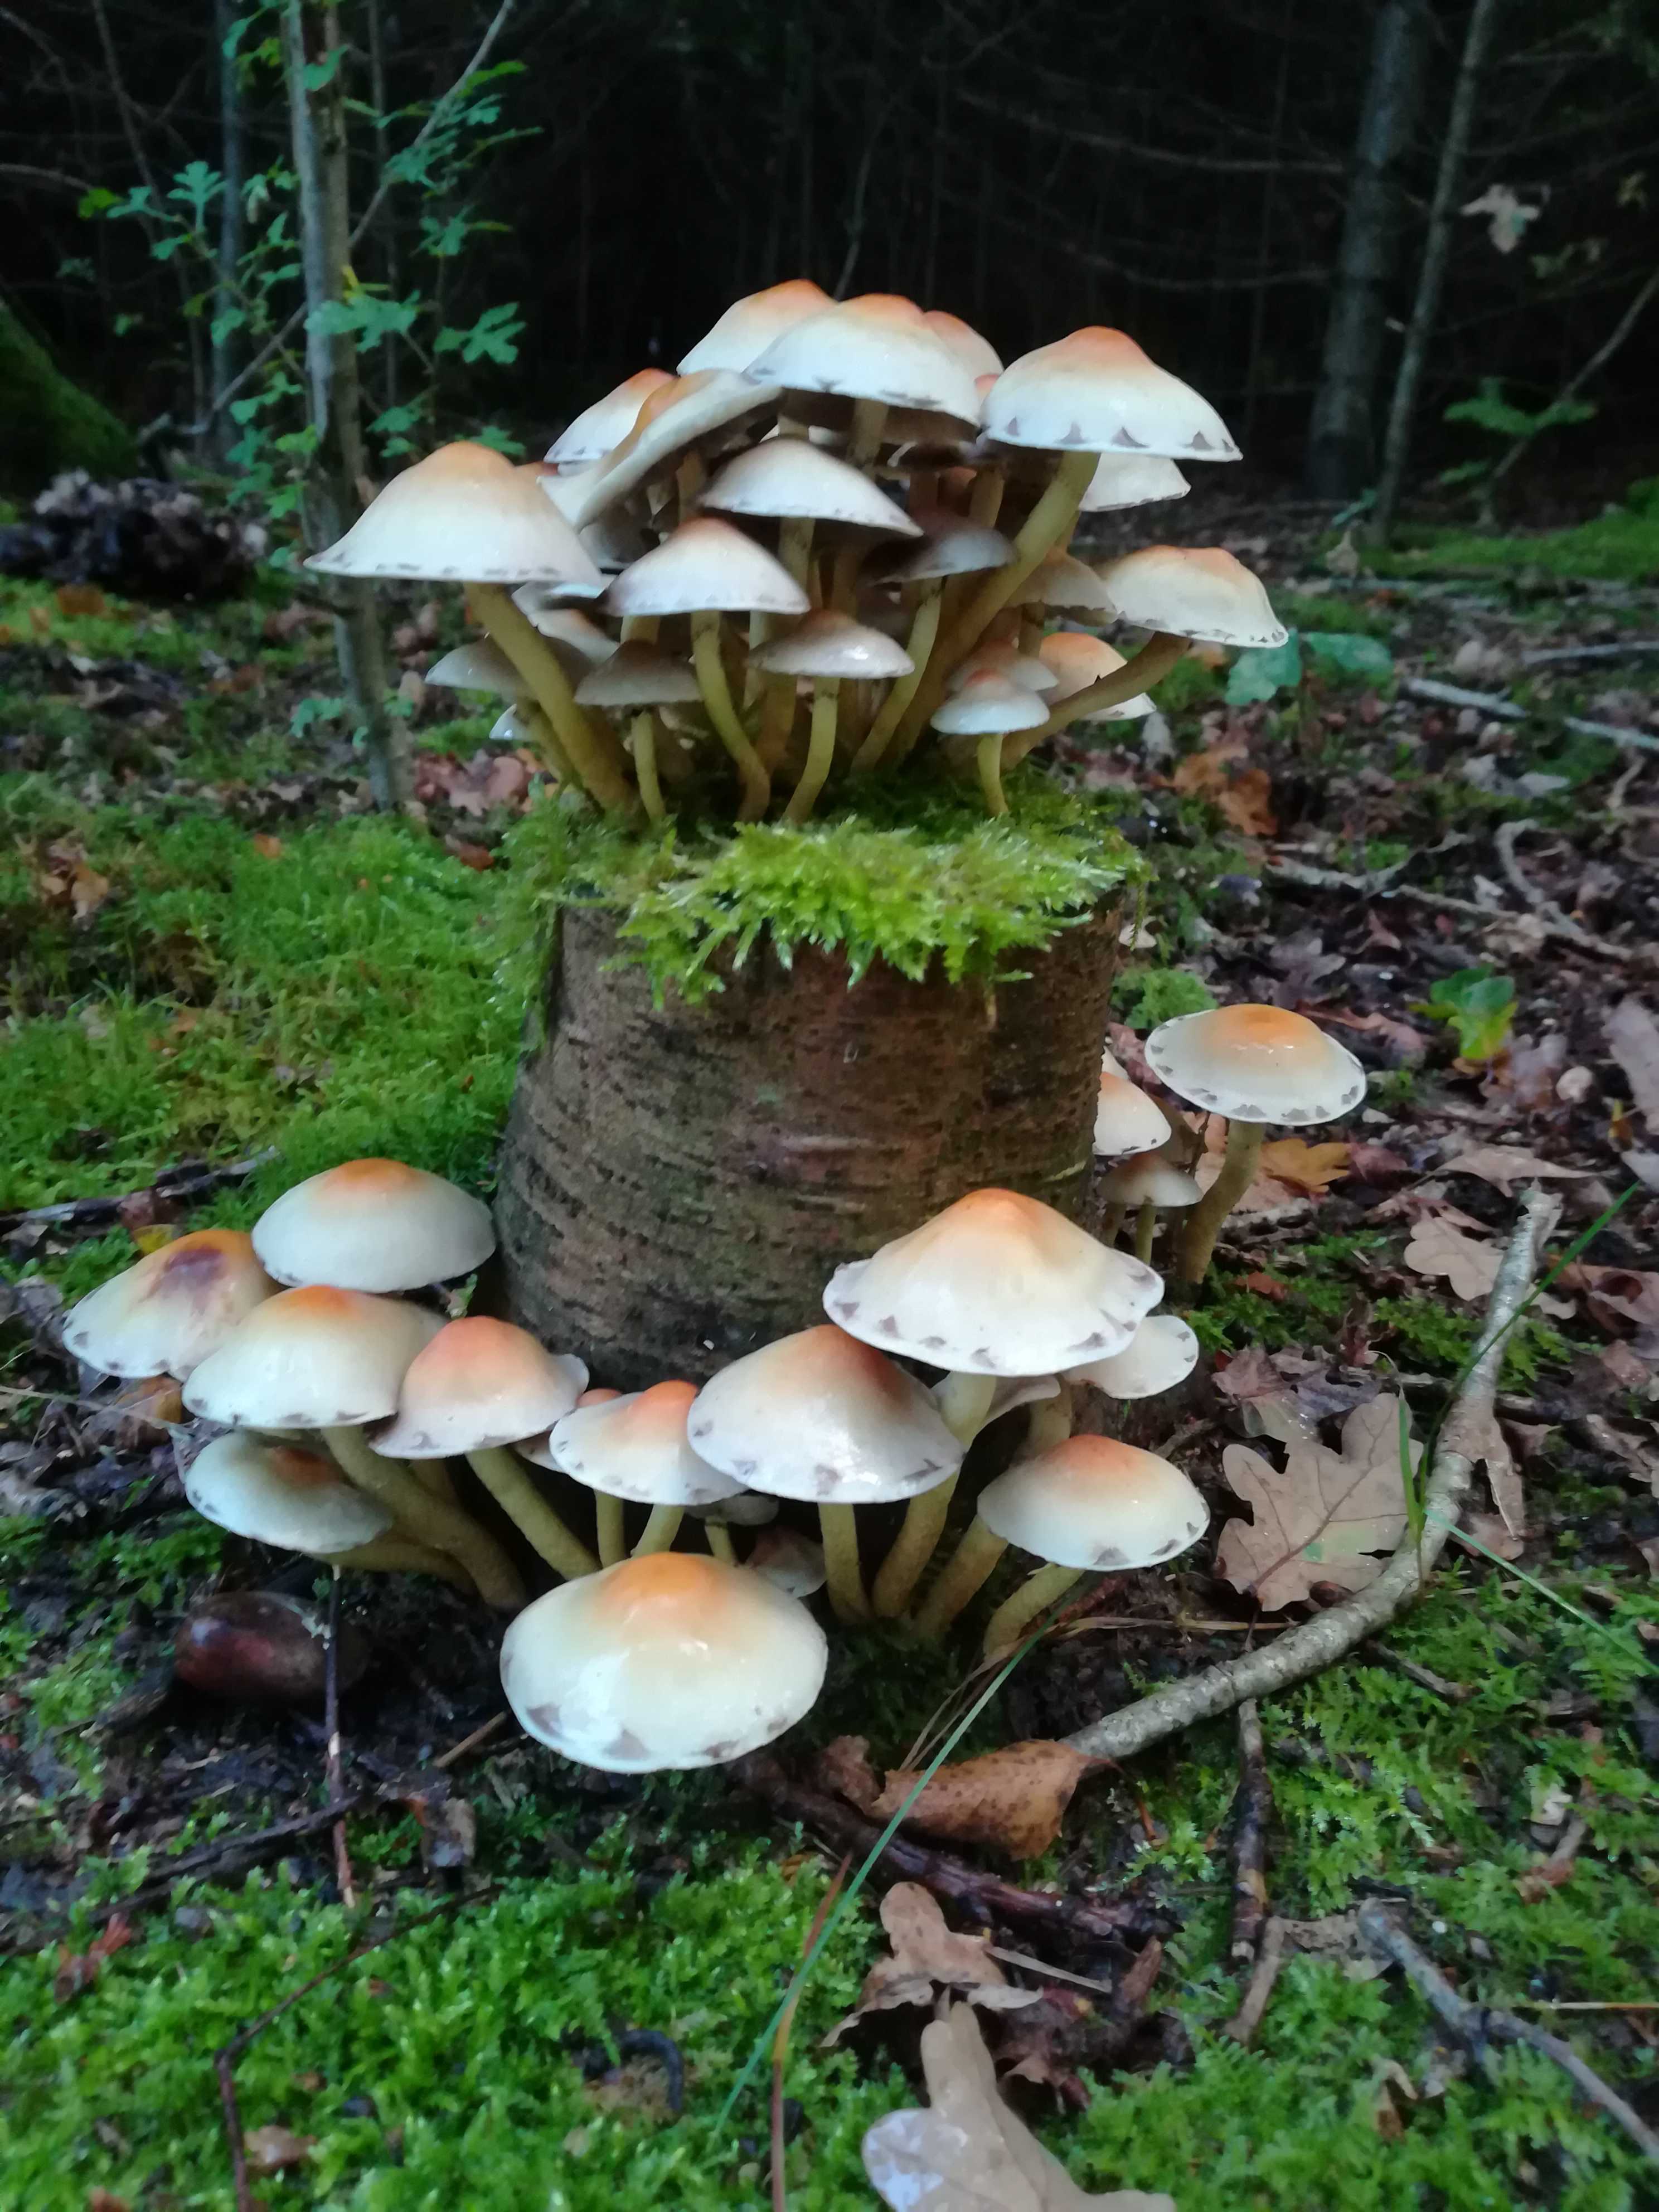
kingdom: Fungi
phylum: Basidiomycota
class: Agaricomycetes
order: Agaricales
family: Strophariaceae
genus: Hypholoma
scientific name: Hypholoma lateritium
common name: teglrød svovlhat
